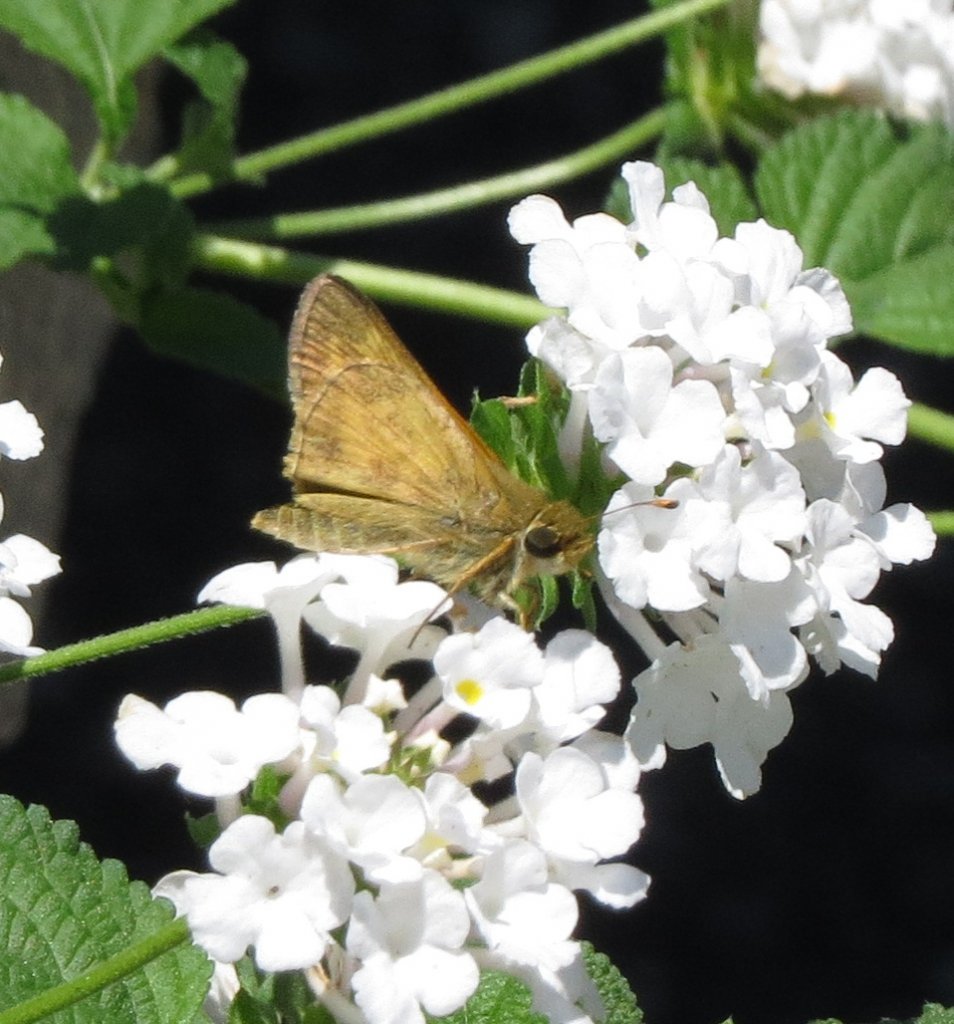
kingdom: Animalia
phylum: Arthropoda
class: Insecta
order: Lepidoptera
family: Hesperiidae
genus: Atalopedes
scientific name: Atalopedes campestris
